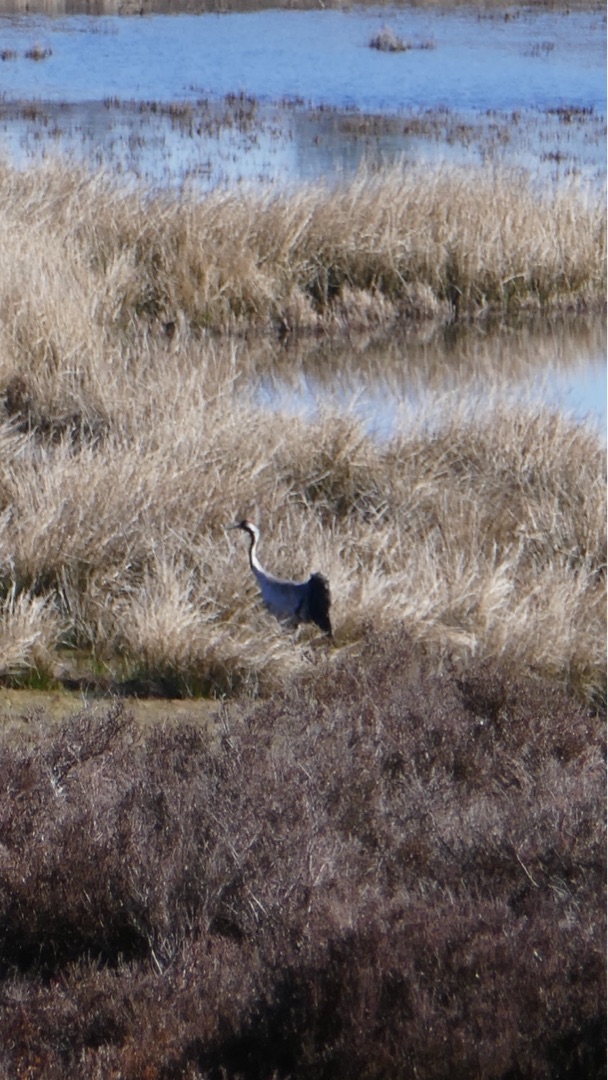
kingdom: Animalia
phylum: Chordata
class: Aves
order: Gruiformes
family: Gruidae
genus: Grus
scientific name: Grus grus
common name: Trane
